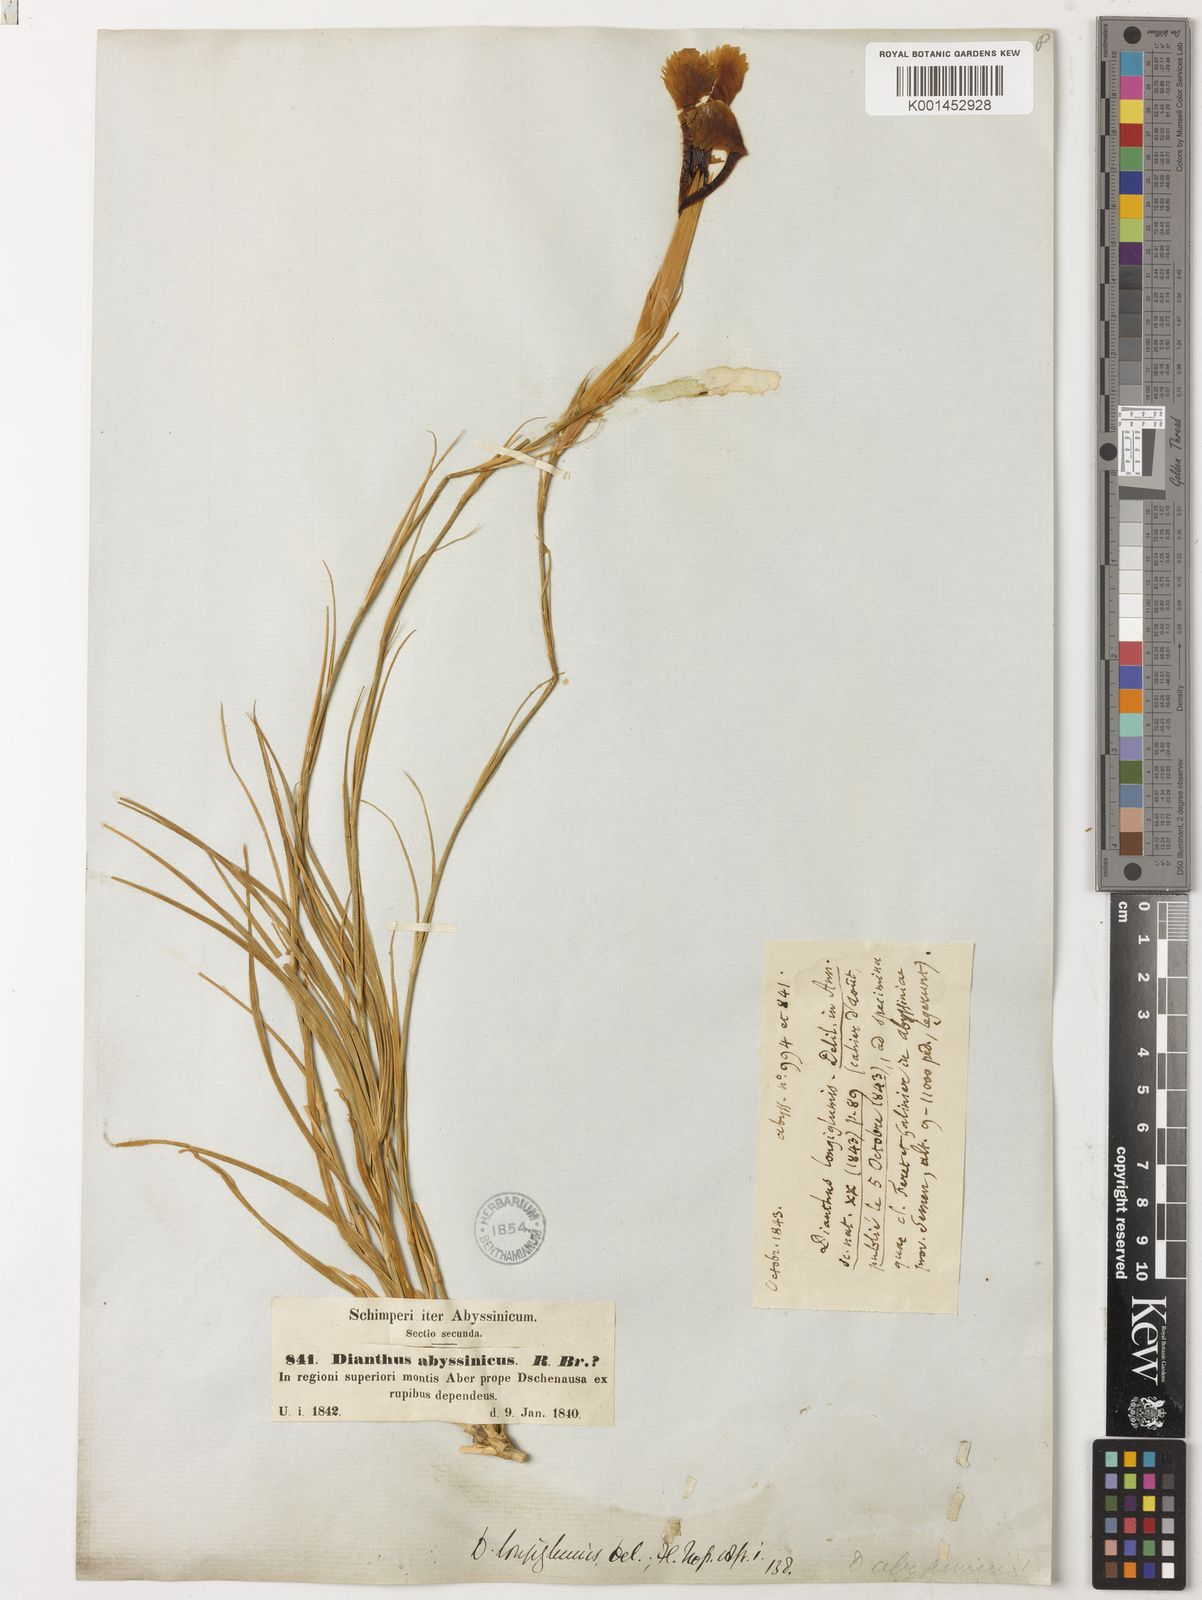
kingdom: Plantae
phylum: Tracheophyta
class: Magnoliopsida
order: Caryophyllales
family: Caryophyllaceae
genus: Dianthus
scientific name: Dianthus longiglumis
